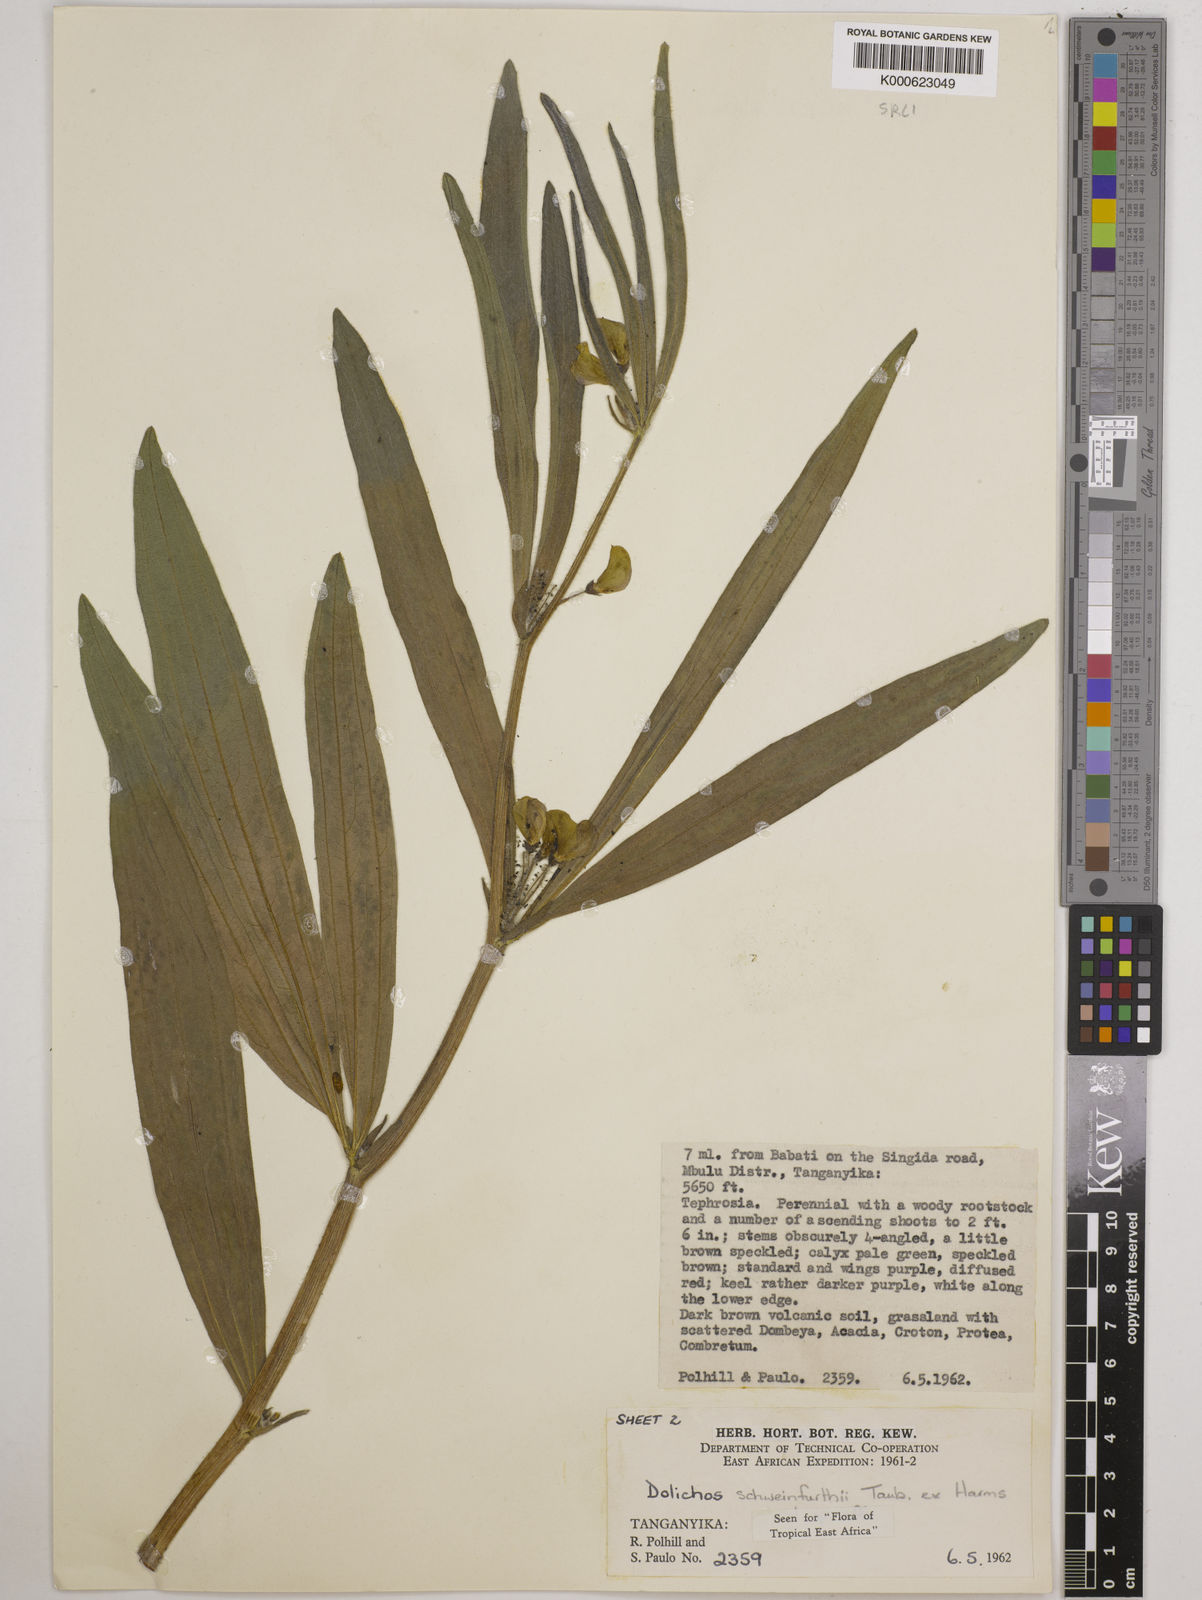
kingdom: Plantae
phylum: Tracheophyta
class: Magnoliopsida
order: Fabales
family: Fabaceae
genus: Dolichos
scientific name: Dolichos
